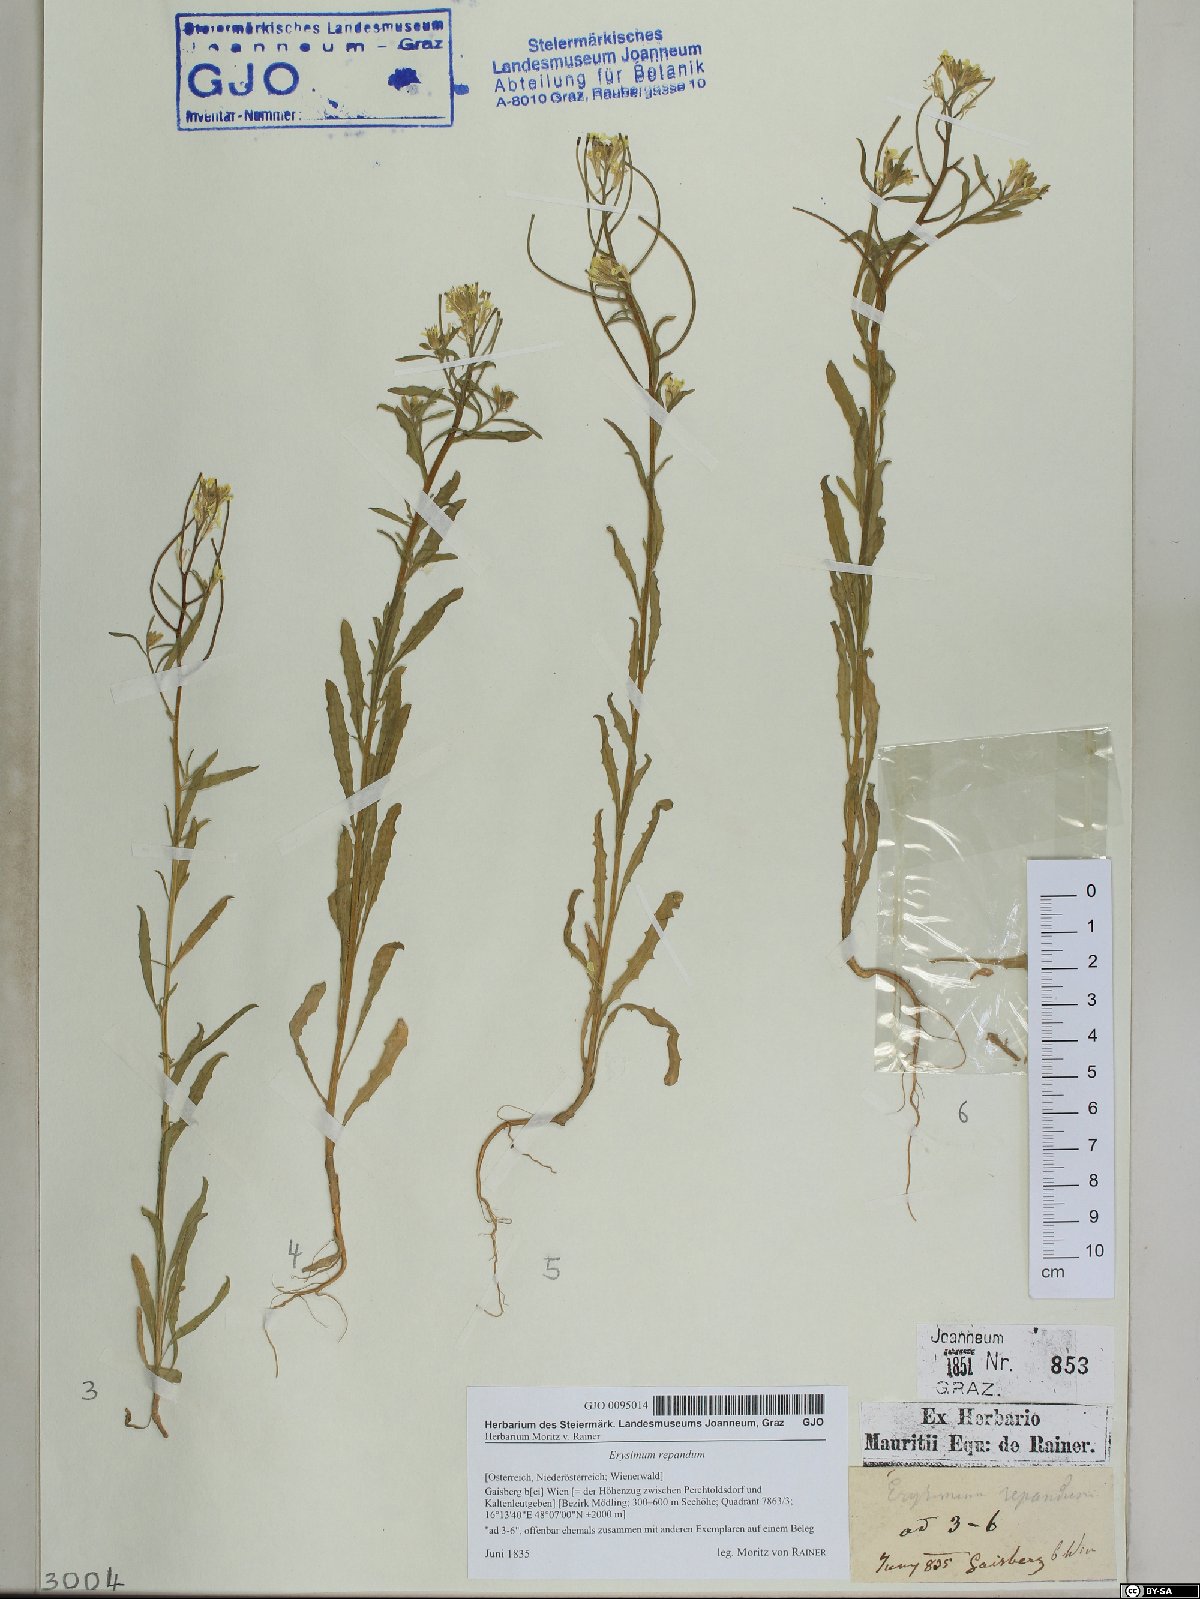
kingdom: Plantae
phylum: Tracheophyta
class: Magnoliopsida
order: Brassicales
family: Brassicaceae
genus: Erysimum
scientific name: Erysimum repandum
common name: Spreading wallflower
